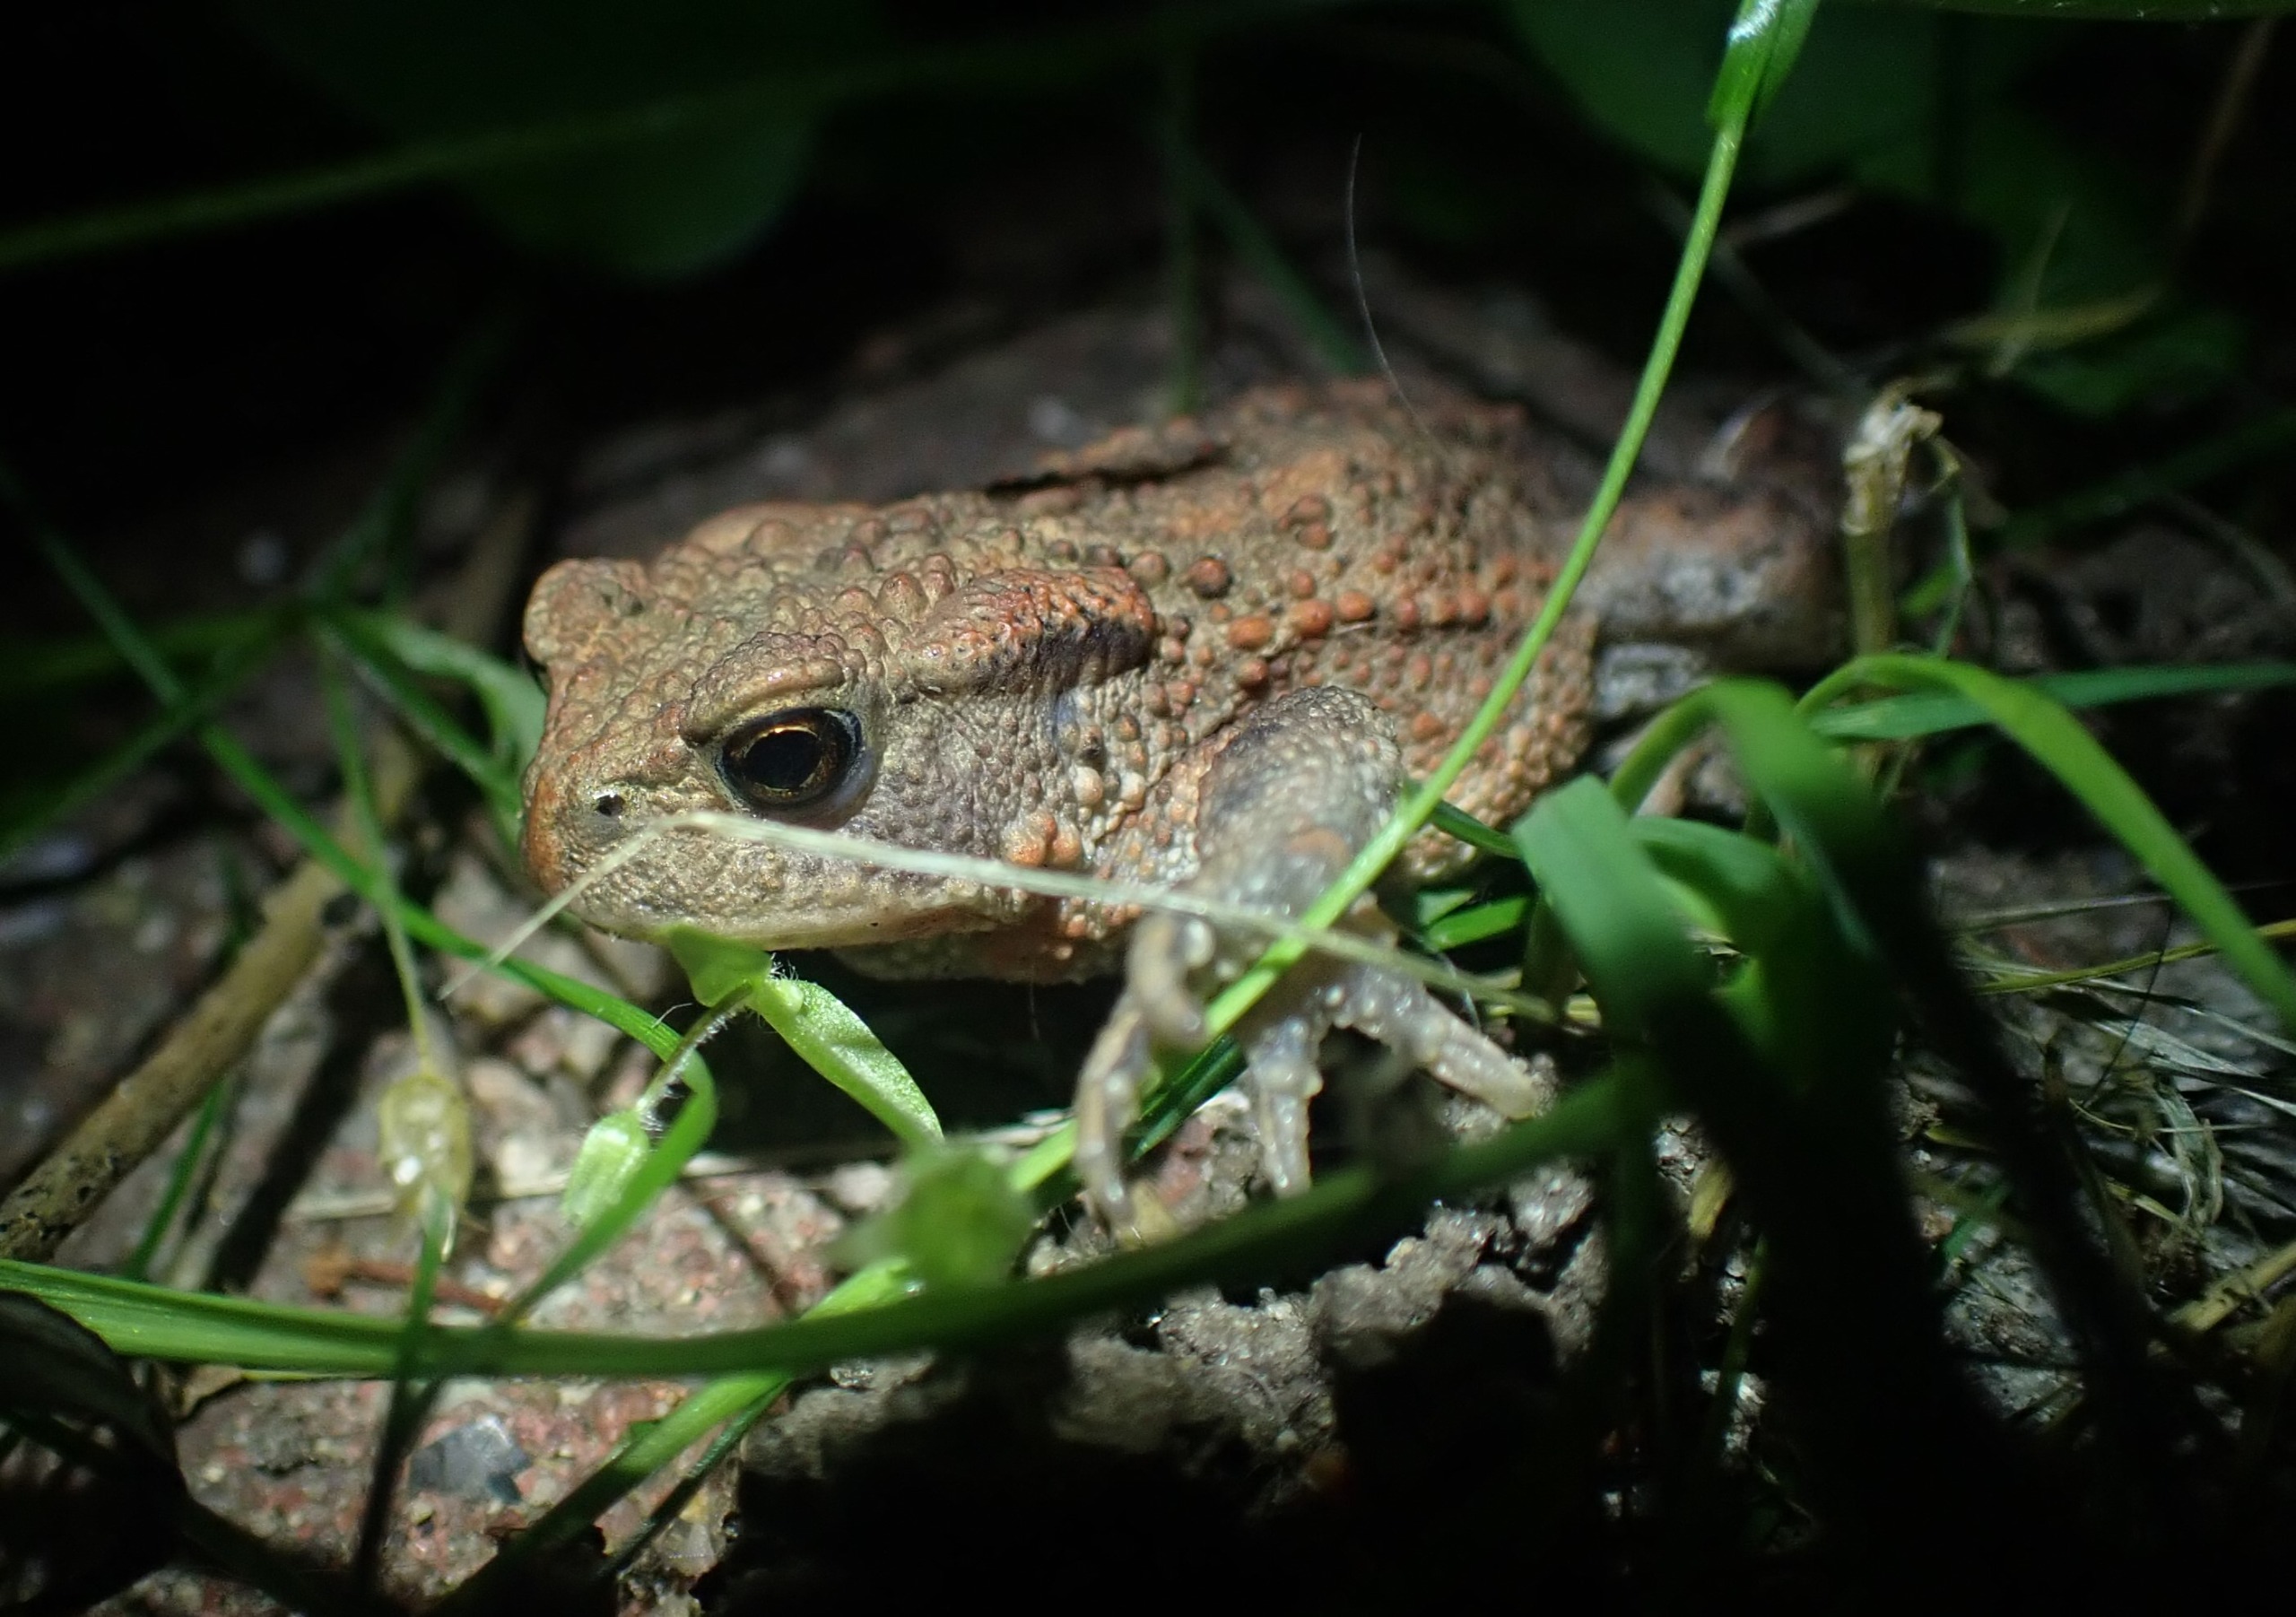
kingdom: Animalia
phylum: Chordata
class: Amphibia
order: Anura
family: Bufonidae
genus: Bufo
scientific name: Bufo bufo
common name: Skrubtudse
